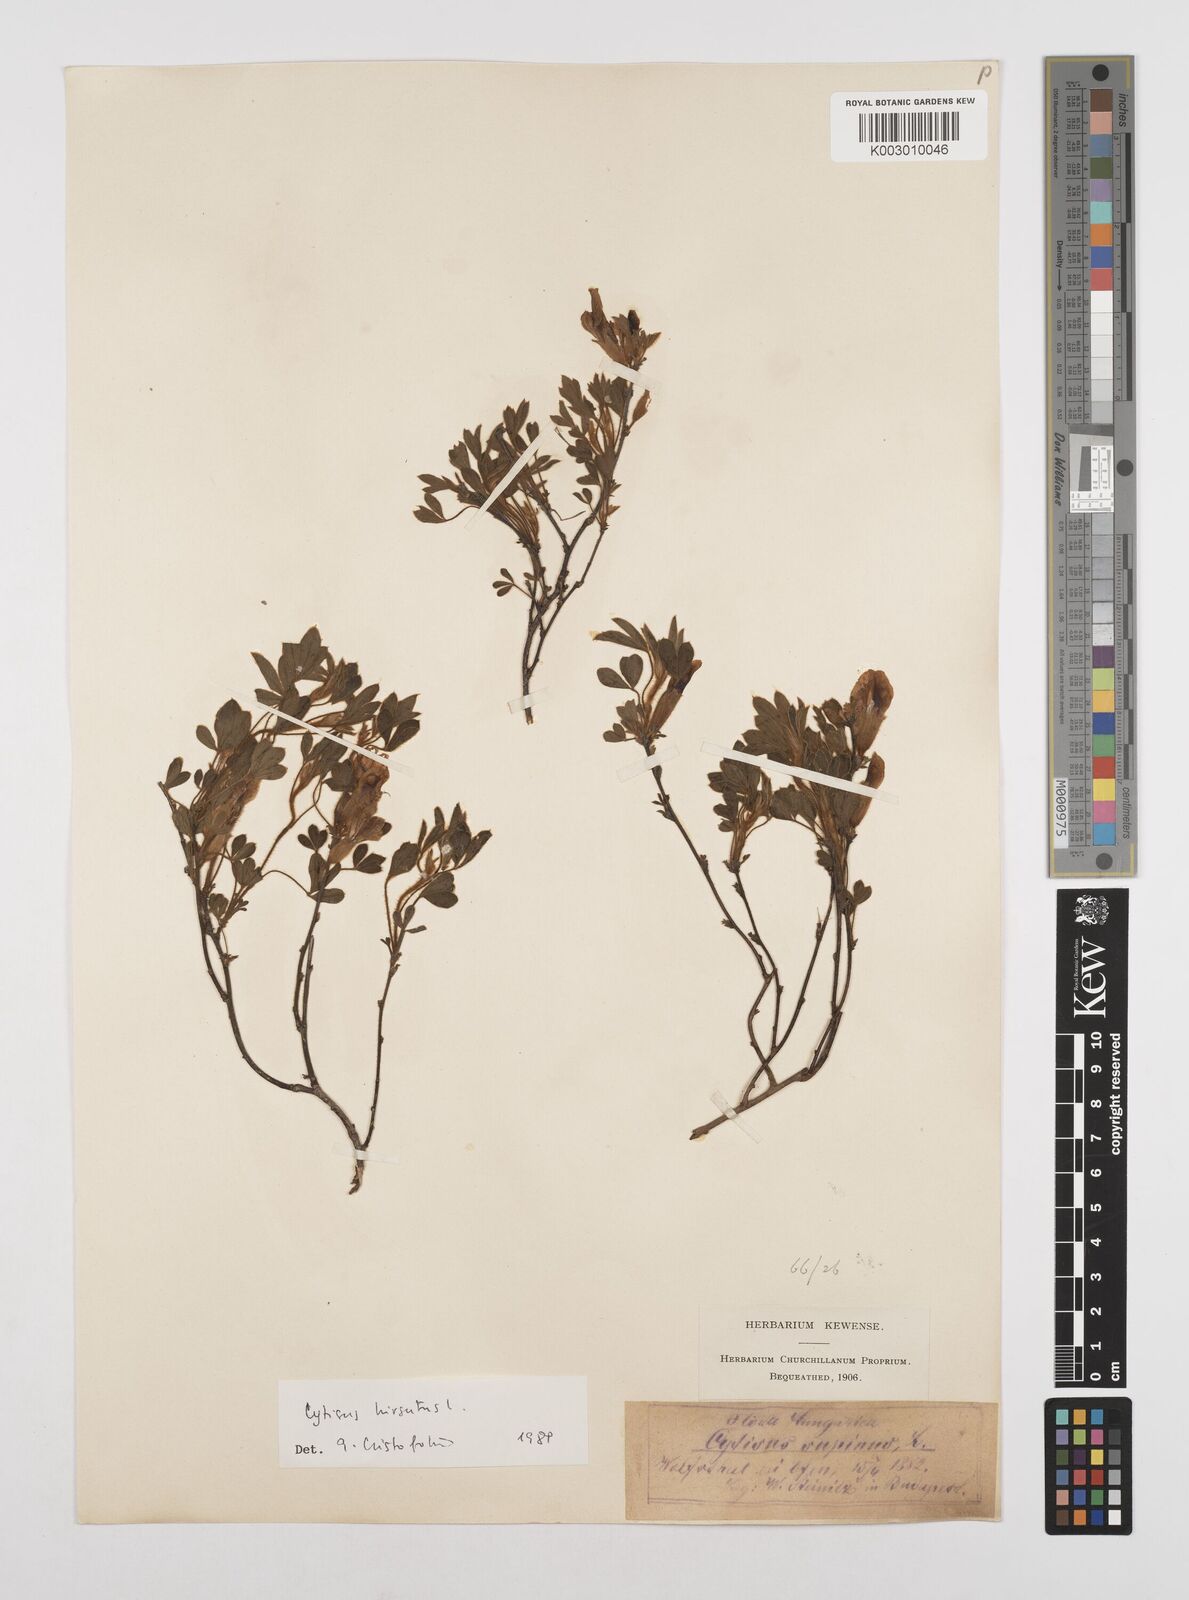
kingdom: Plantae
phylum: Tracheophyta
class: Magnoliopsida
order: Fabales
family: Fabaceae
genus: Chamaecytisus
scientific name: Chamaecytisus hirsutus
